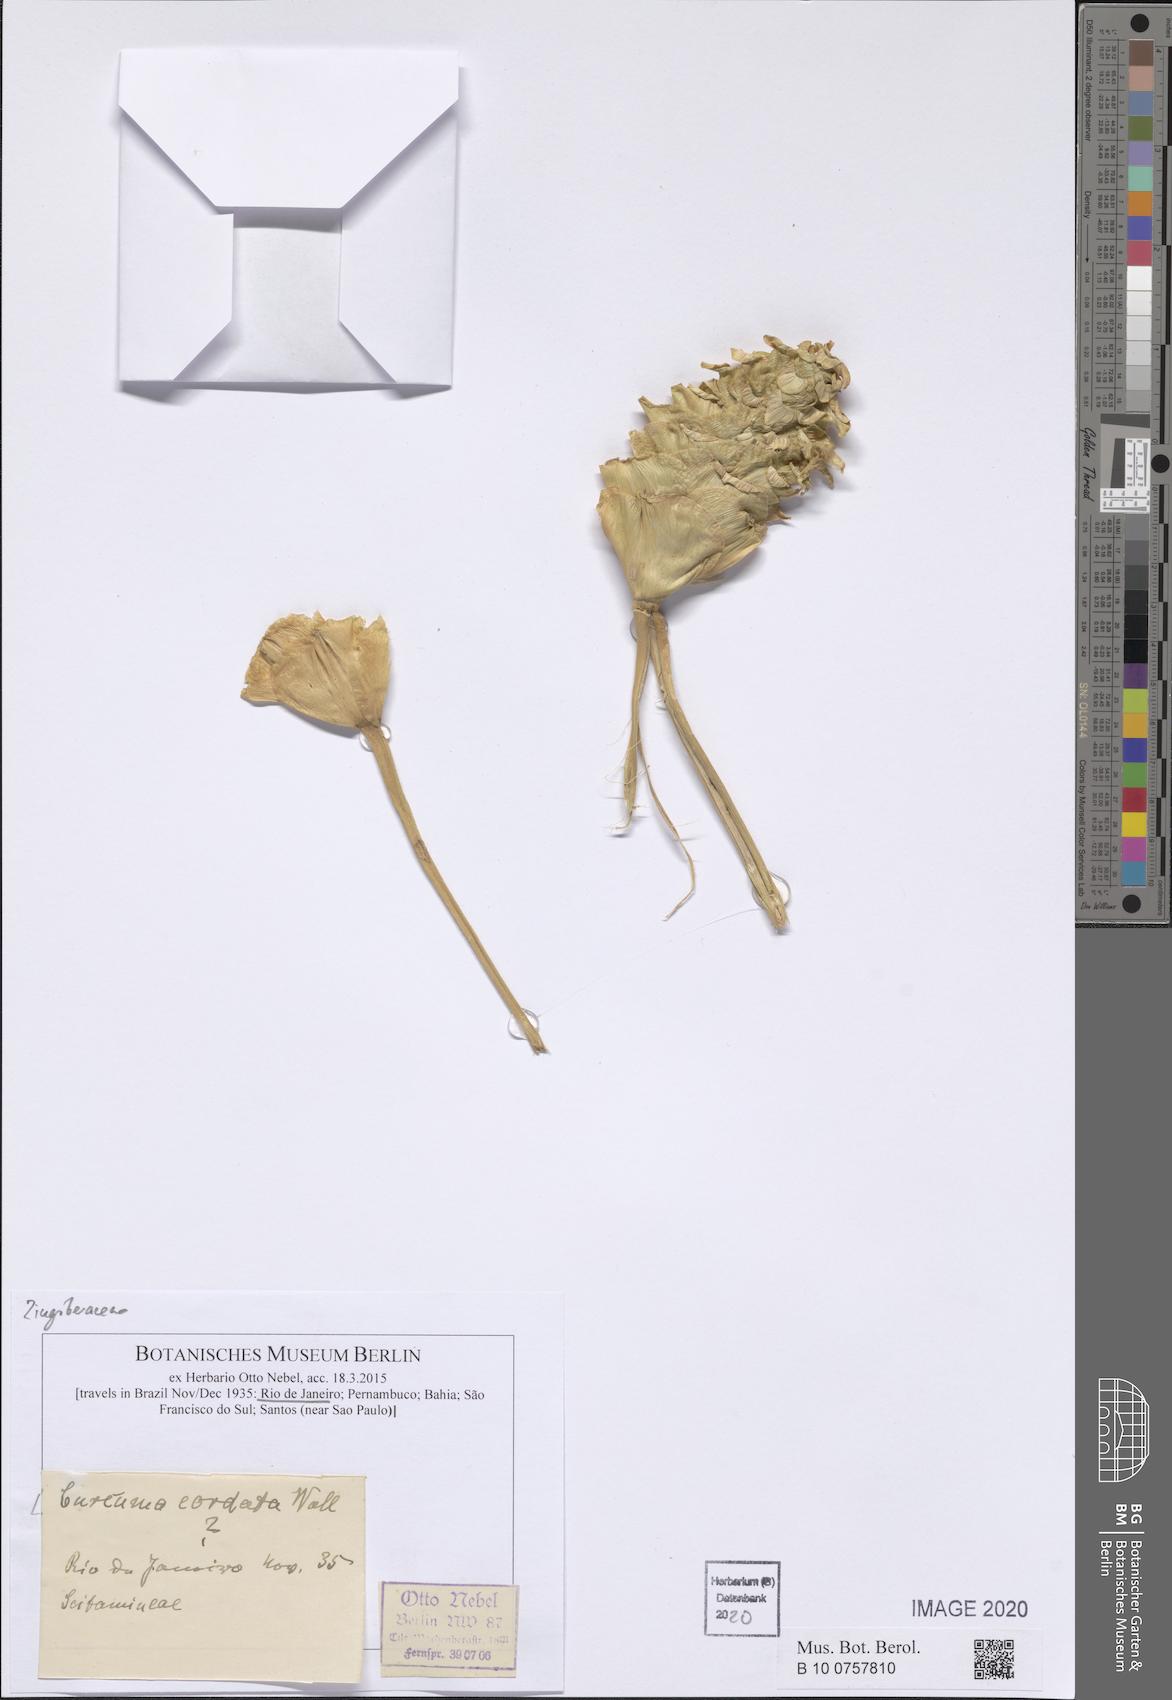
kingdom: Plantae
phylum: Tracheophyta
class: Liliopsida
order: Zingiberales
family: Zingiberaceae
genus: Curcuma
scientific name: Curcuma cordata
